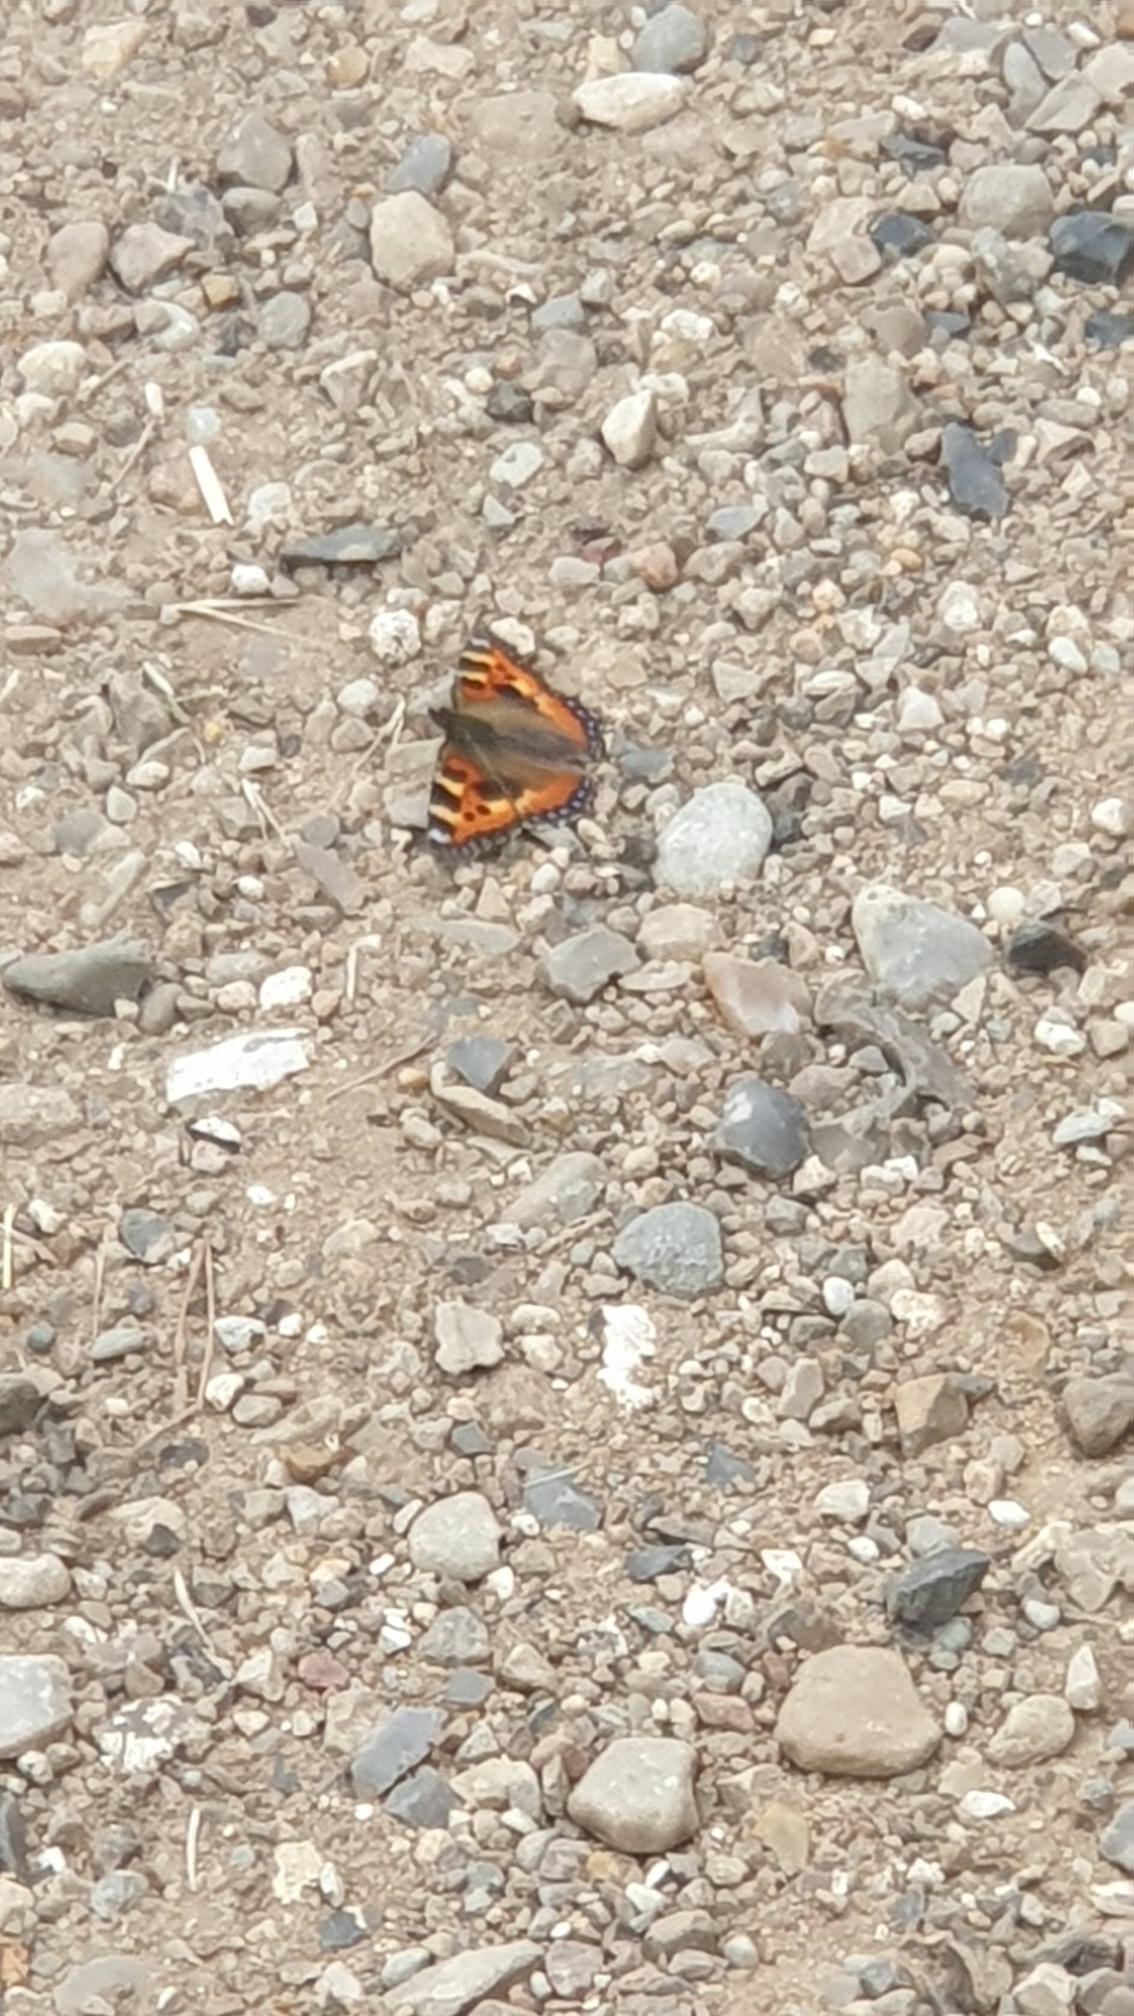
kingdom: Animalia
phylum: Arthropoda
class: Insecta
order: Lepidoptera
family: Nymphalidae
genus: Aglais
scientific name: Aglais urticae
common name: Nældens takvinge
